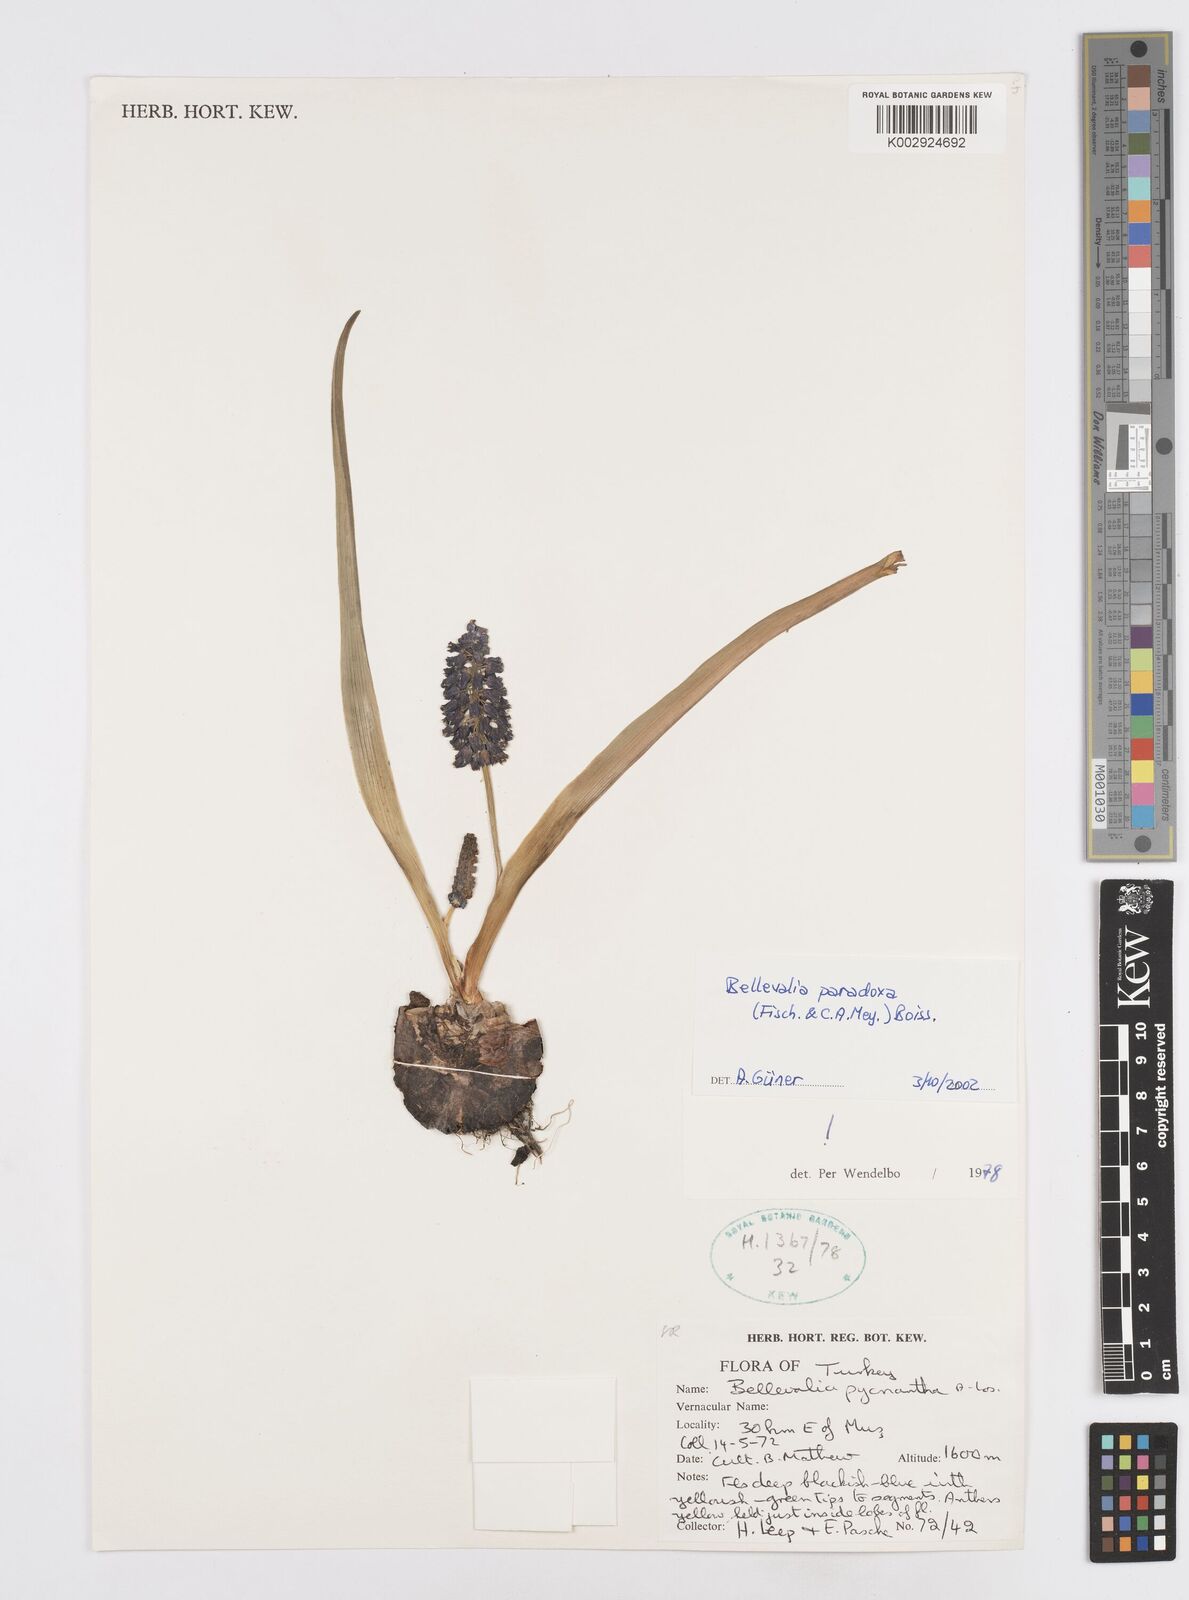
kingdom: Plantae
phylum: Tracheophyta
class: Liliopsida
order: Asparagales
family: Asparagaceae
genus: Bellevalia
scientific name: Bellevalia paradoxa
